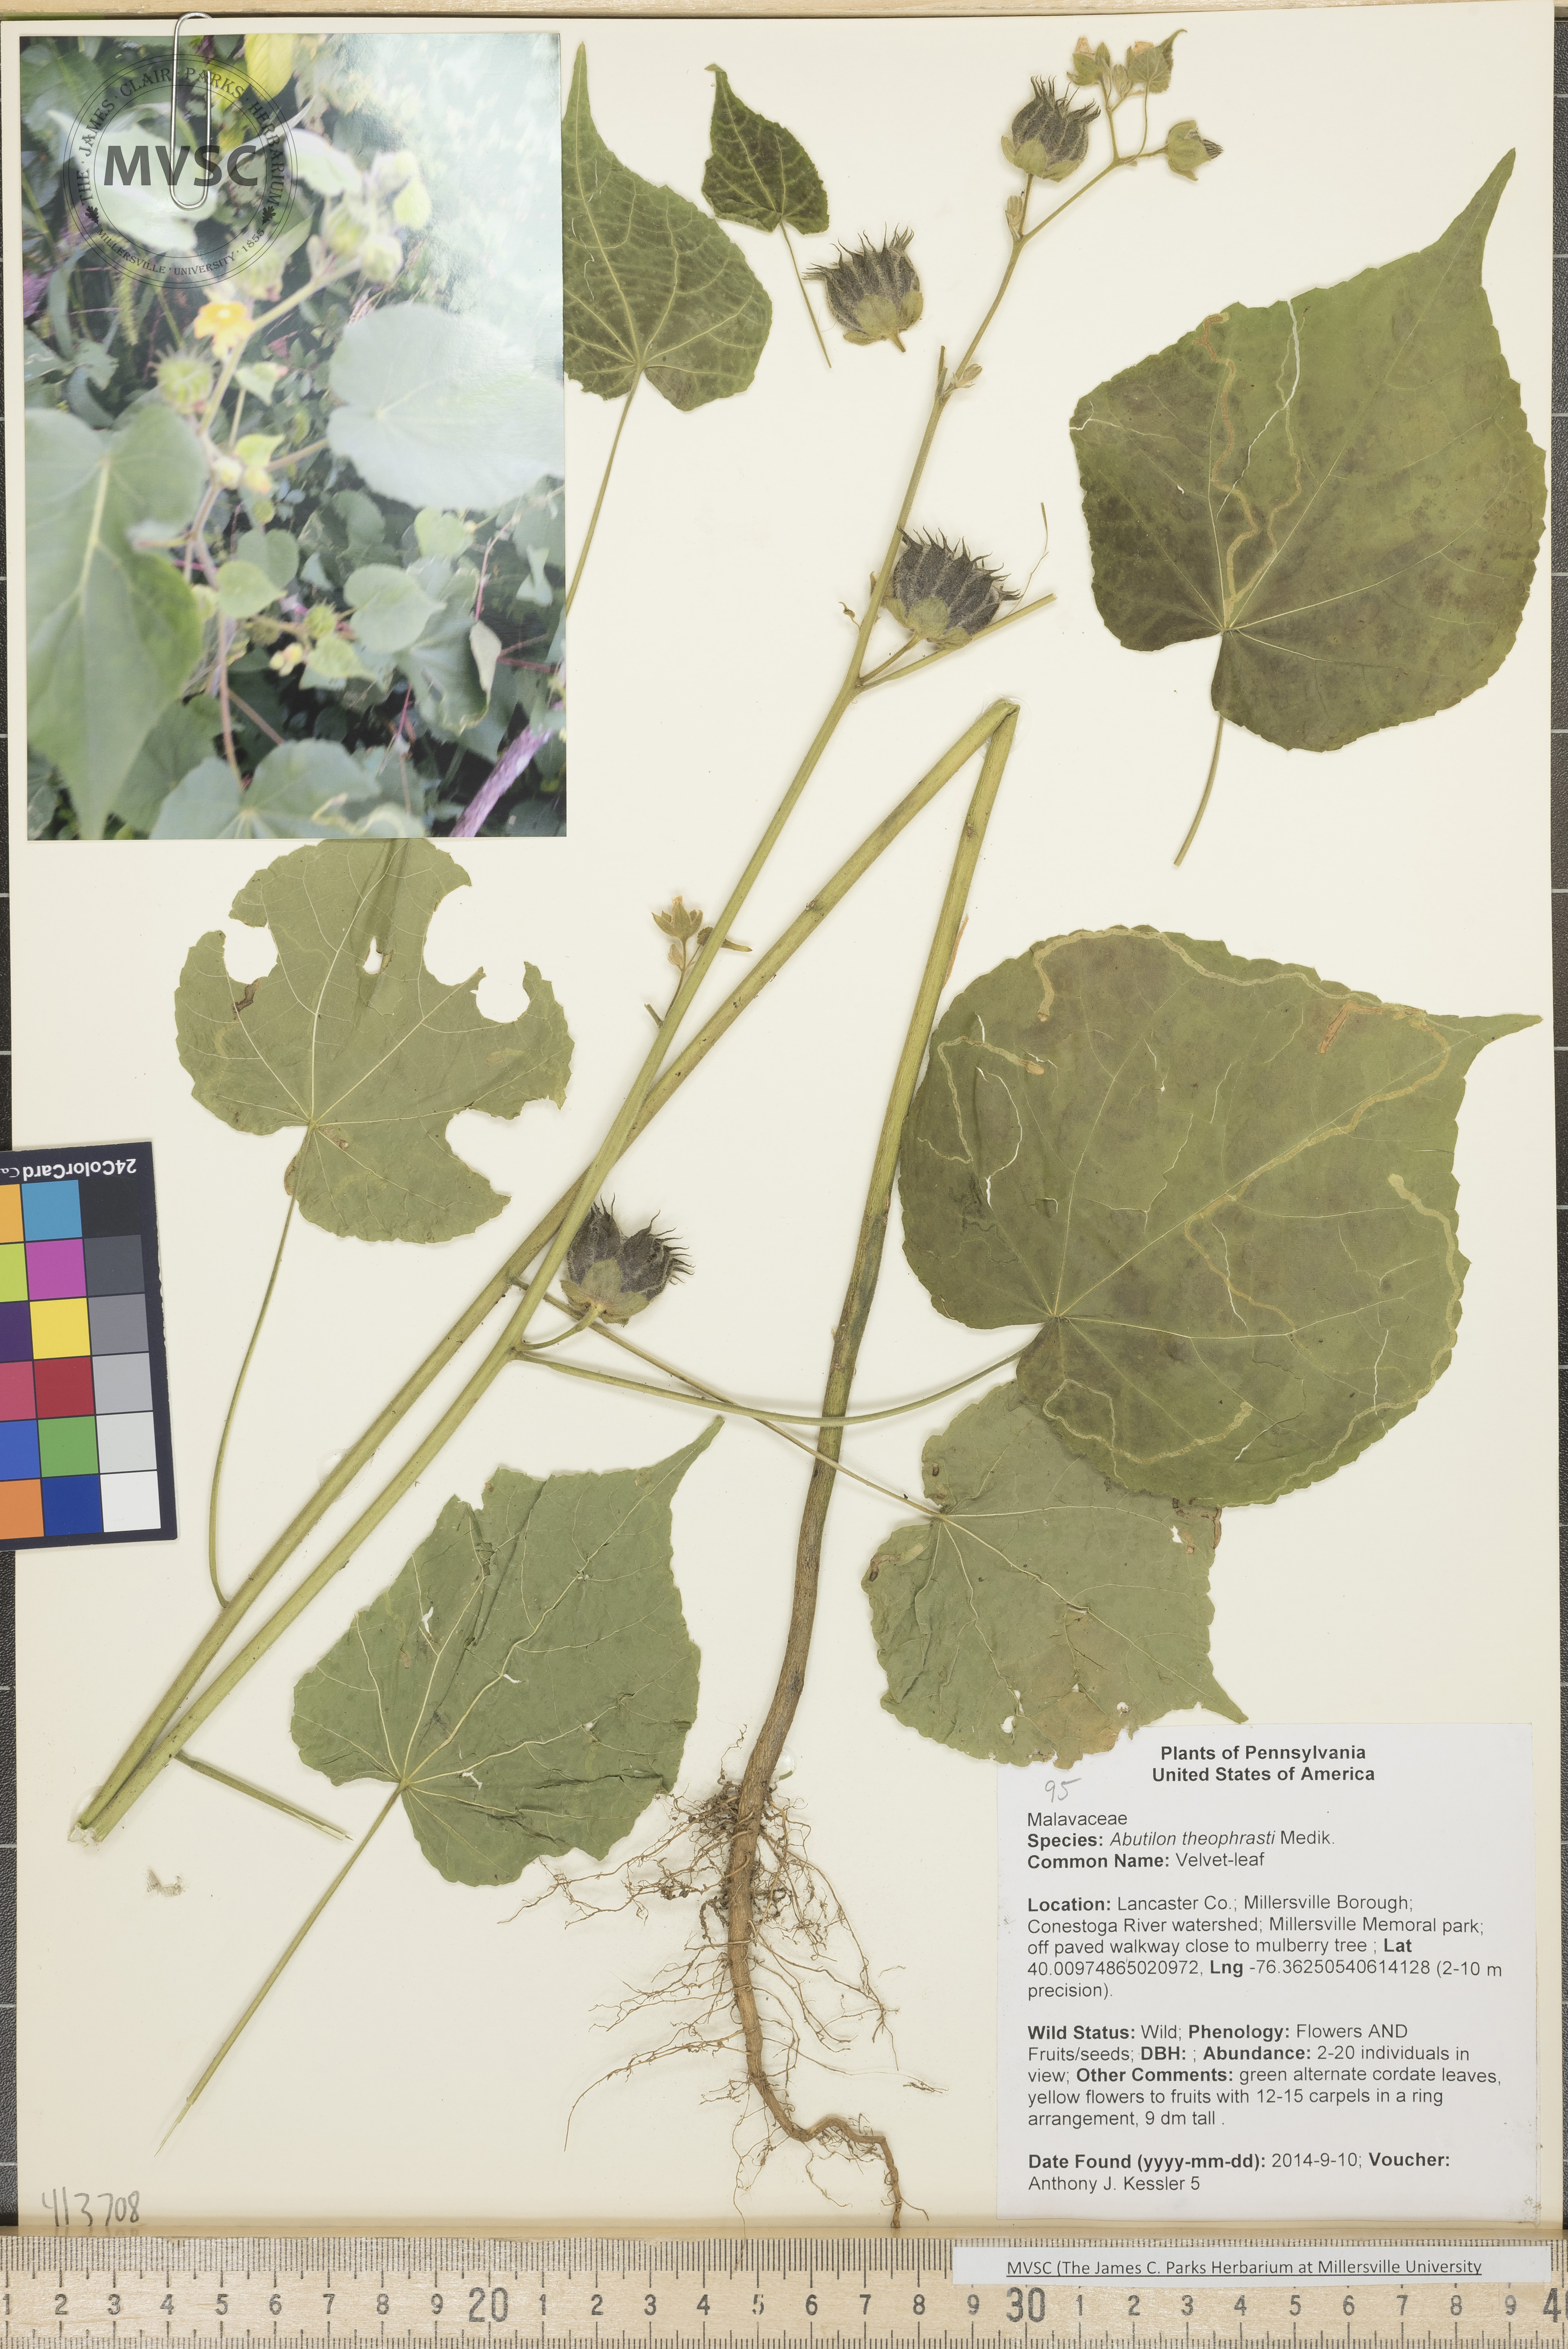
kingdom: Plantae
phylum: Tracheophyta
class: Magnoliopsida
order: Malvales
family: Malvaceae
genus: Abutilon
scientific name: Abutilon theophrasti
